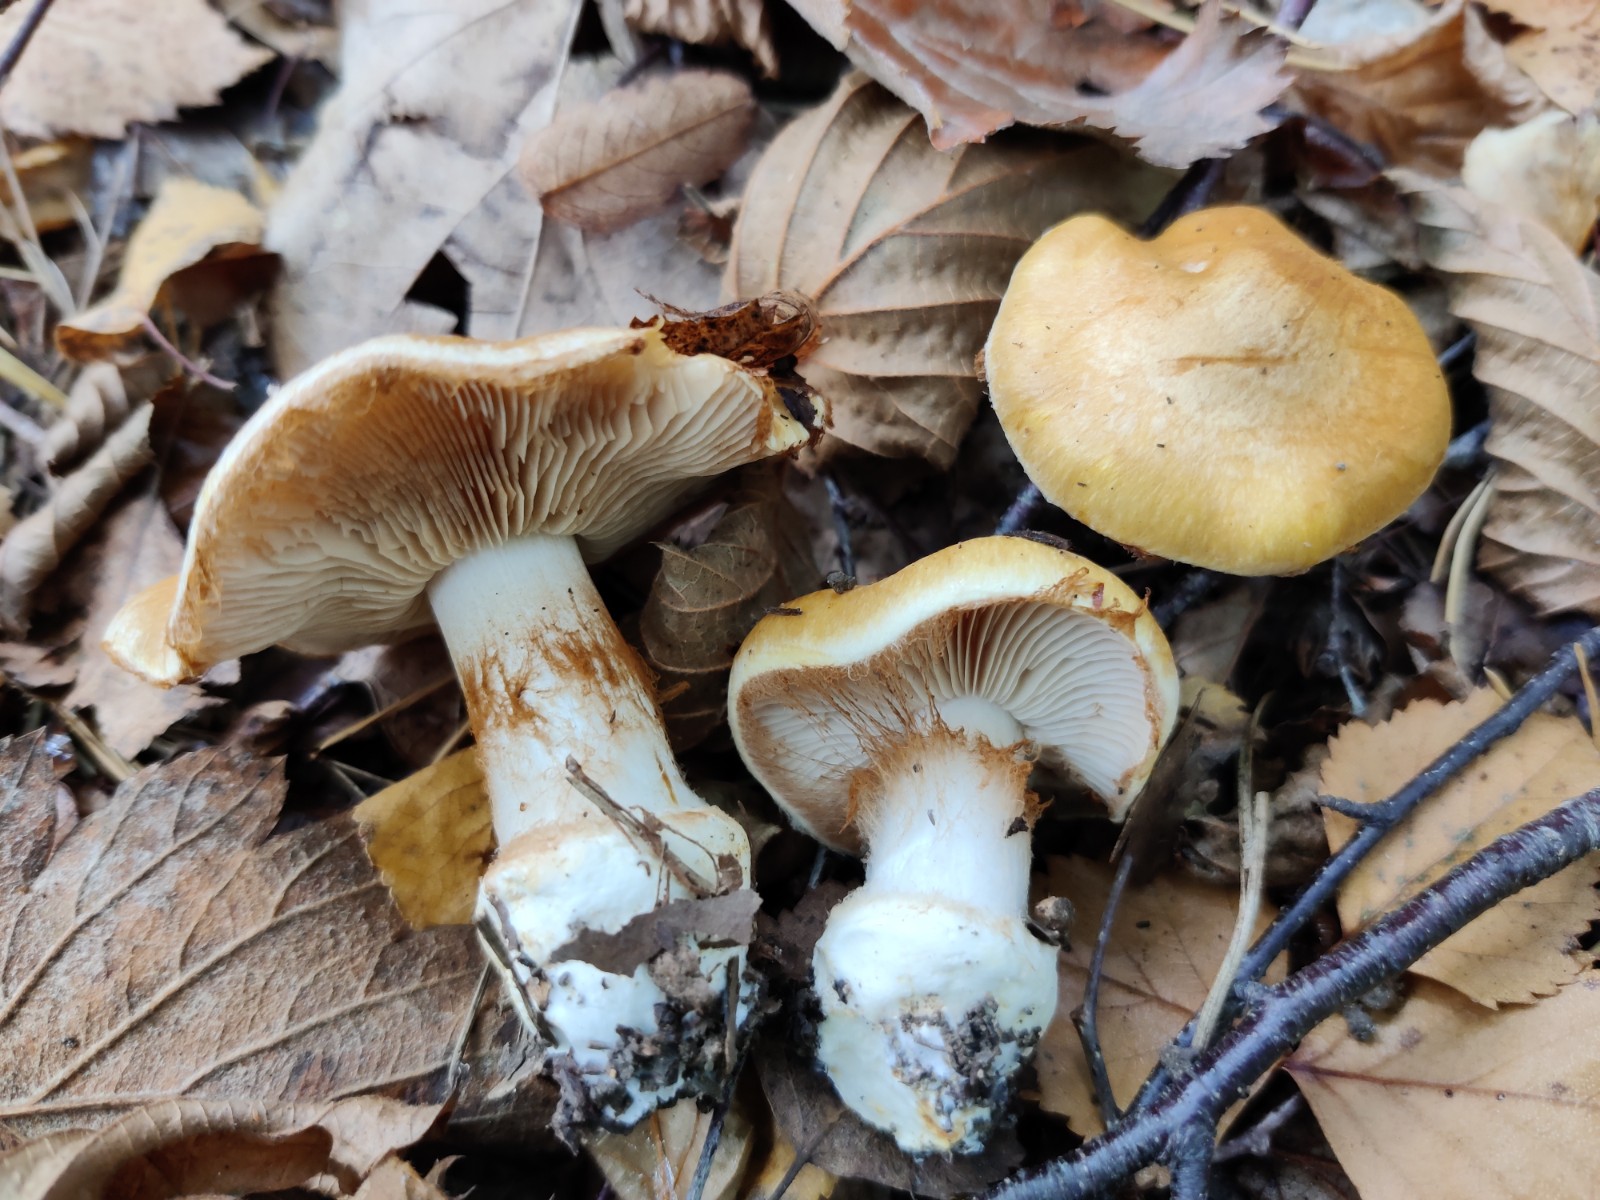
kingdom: Fungi
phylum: Basidiomycota
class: Agaricomycetes
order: Agaricales
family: Cortinariaceae
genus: Phlegmacium
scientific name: Phlegmacium subdecolorans
